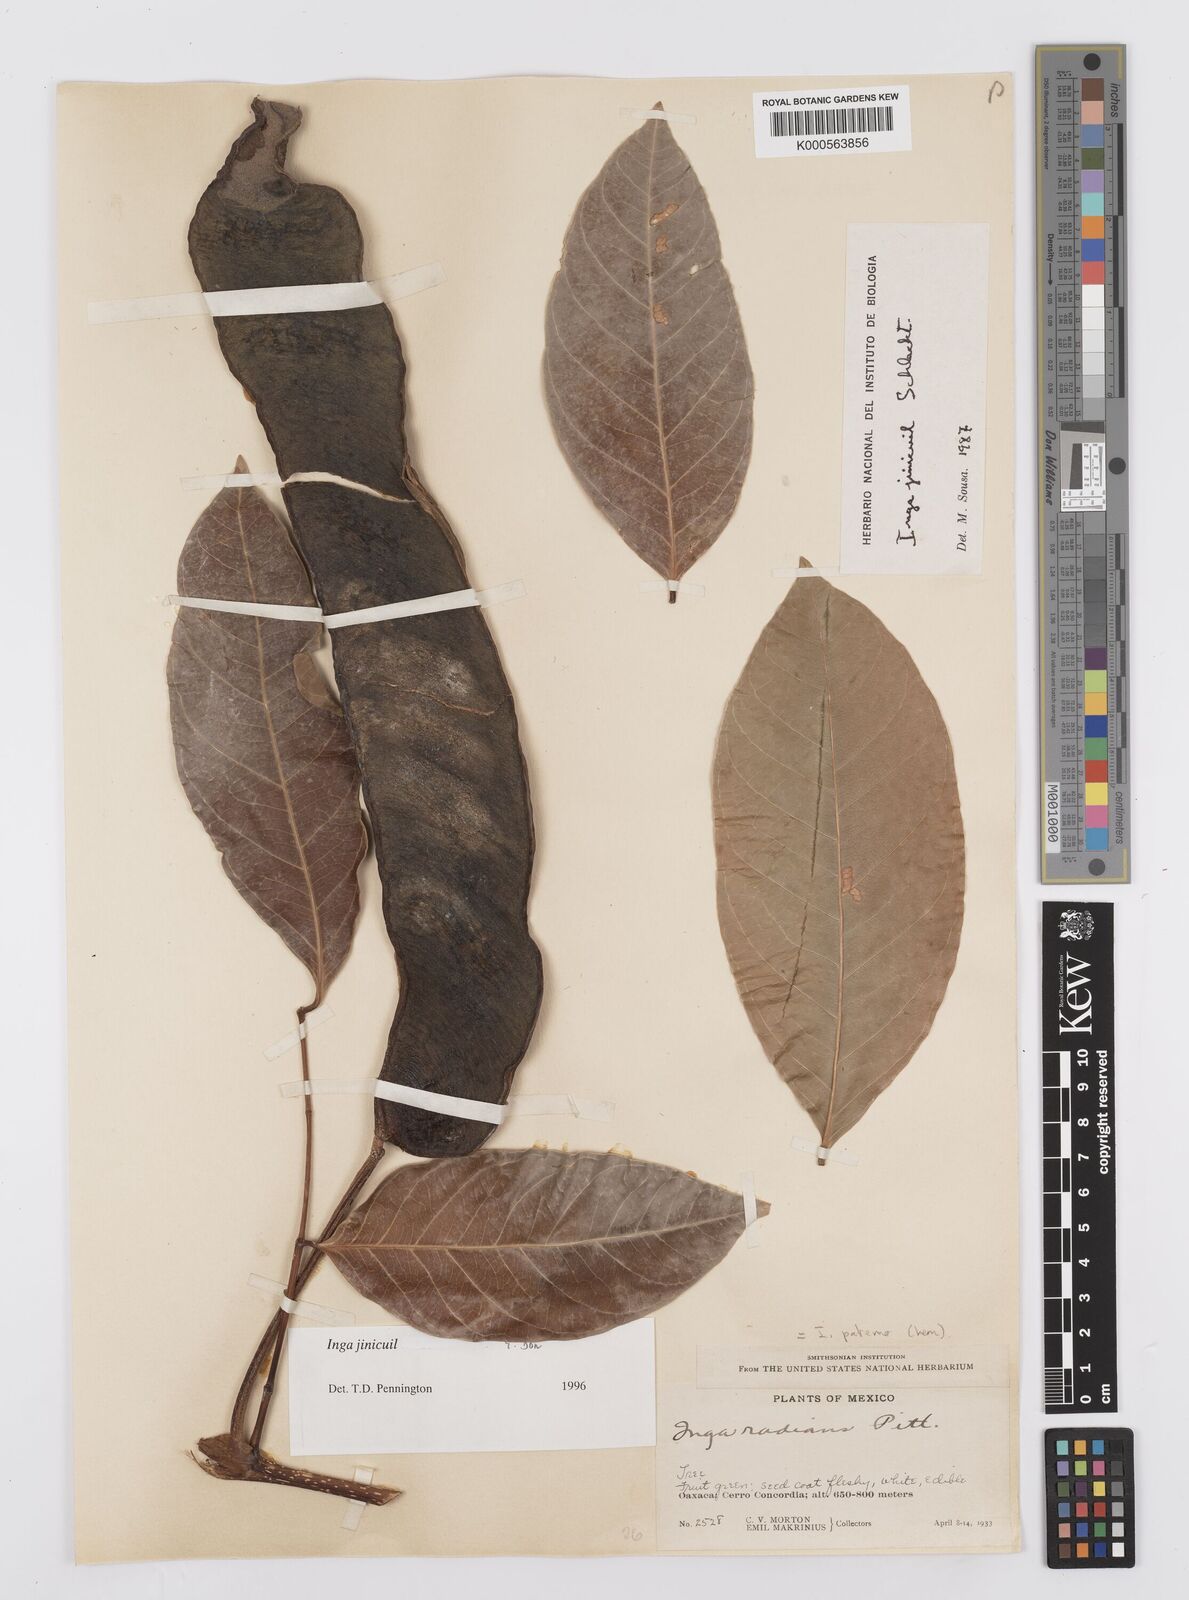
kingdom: Plantae
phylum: Tracheophyta
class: Magnoliopsida
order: Fabales
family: Fabaceae
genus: Inga
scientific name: Inga inicuil
